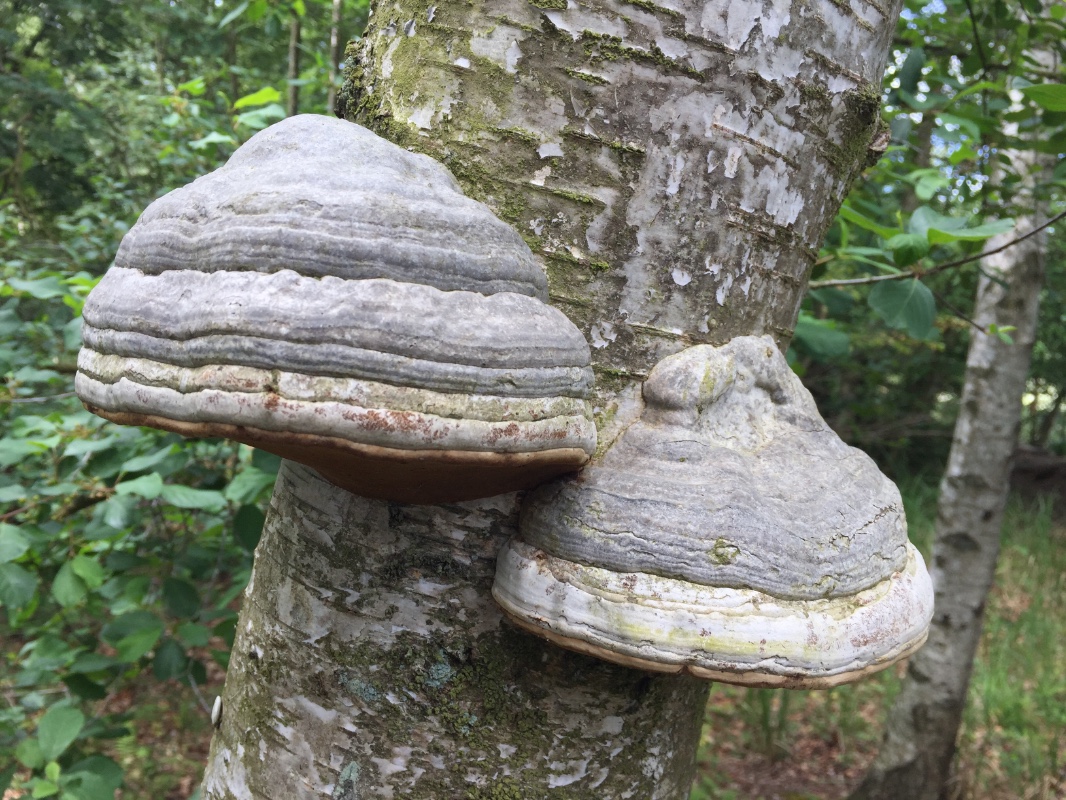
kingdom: Fungi
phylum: Basidiomycota
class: Agaricomycetes
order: Polyporales
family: Polyporaceae
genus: Fomes
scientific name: Fomes fomentarius
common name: tøndersvamp
